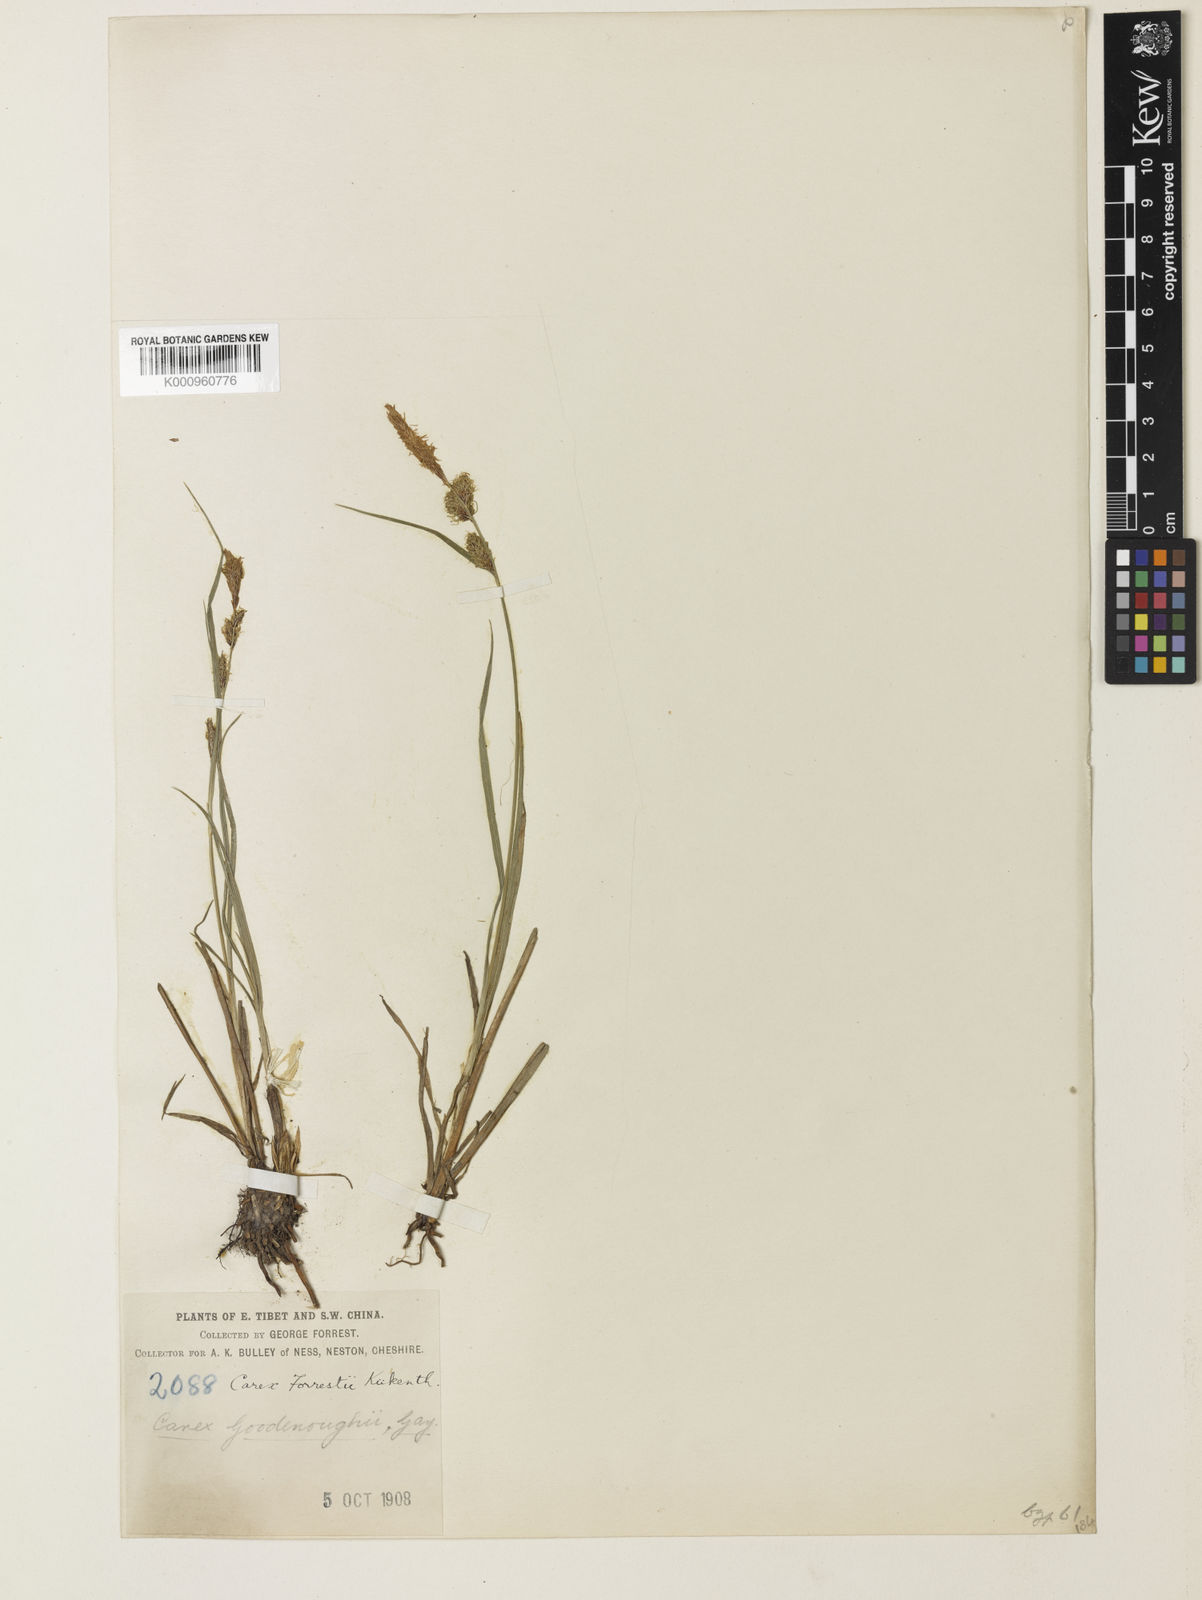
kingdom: Plantae
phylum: Tracheophyta
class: Liliopsida
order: Poales
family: Cyperaceae
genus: Carex
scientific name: Carex
